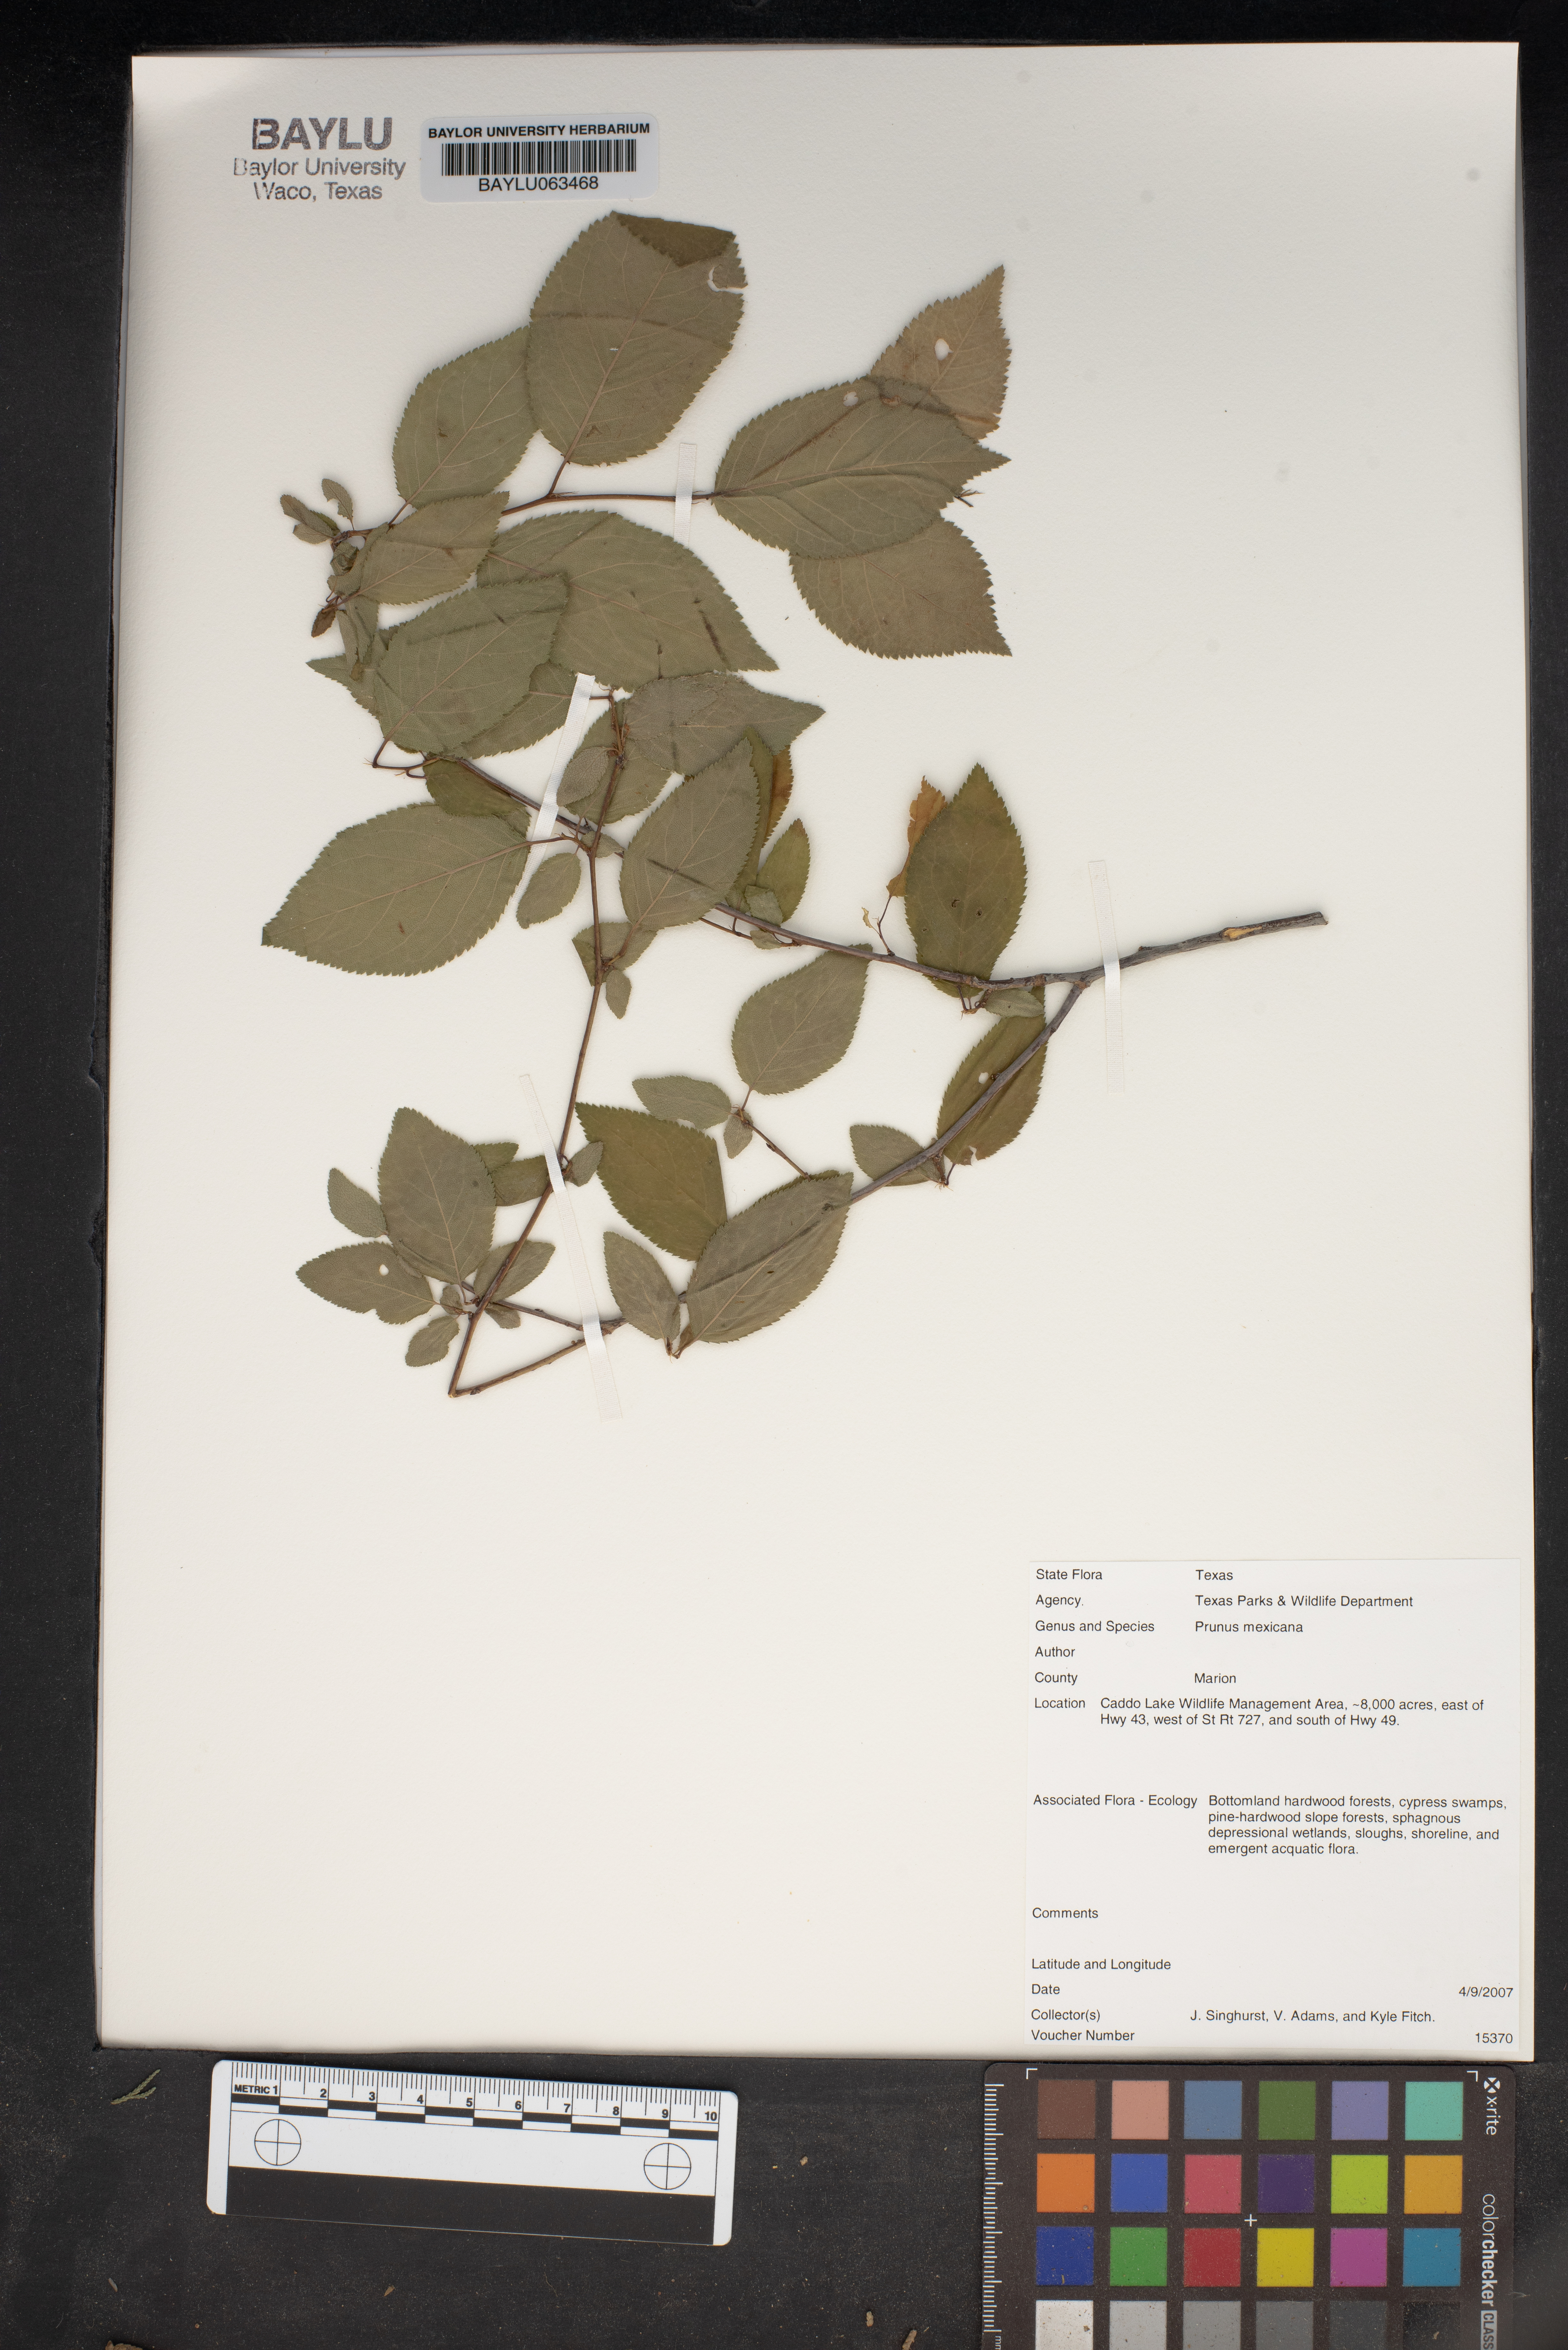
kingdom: Plantae
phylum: Tracheophyta
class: Magnoliopsida
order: Rosales
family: Rosaceae
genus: Prunus
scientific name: Prunus mexicana
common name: Mexican plum
